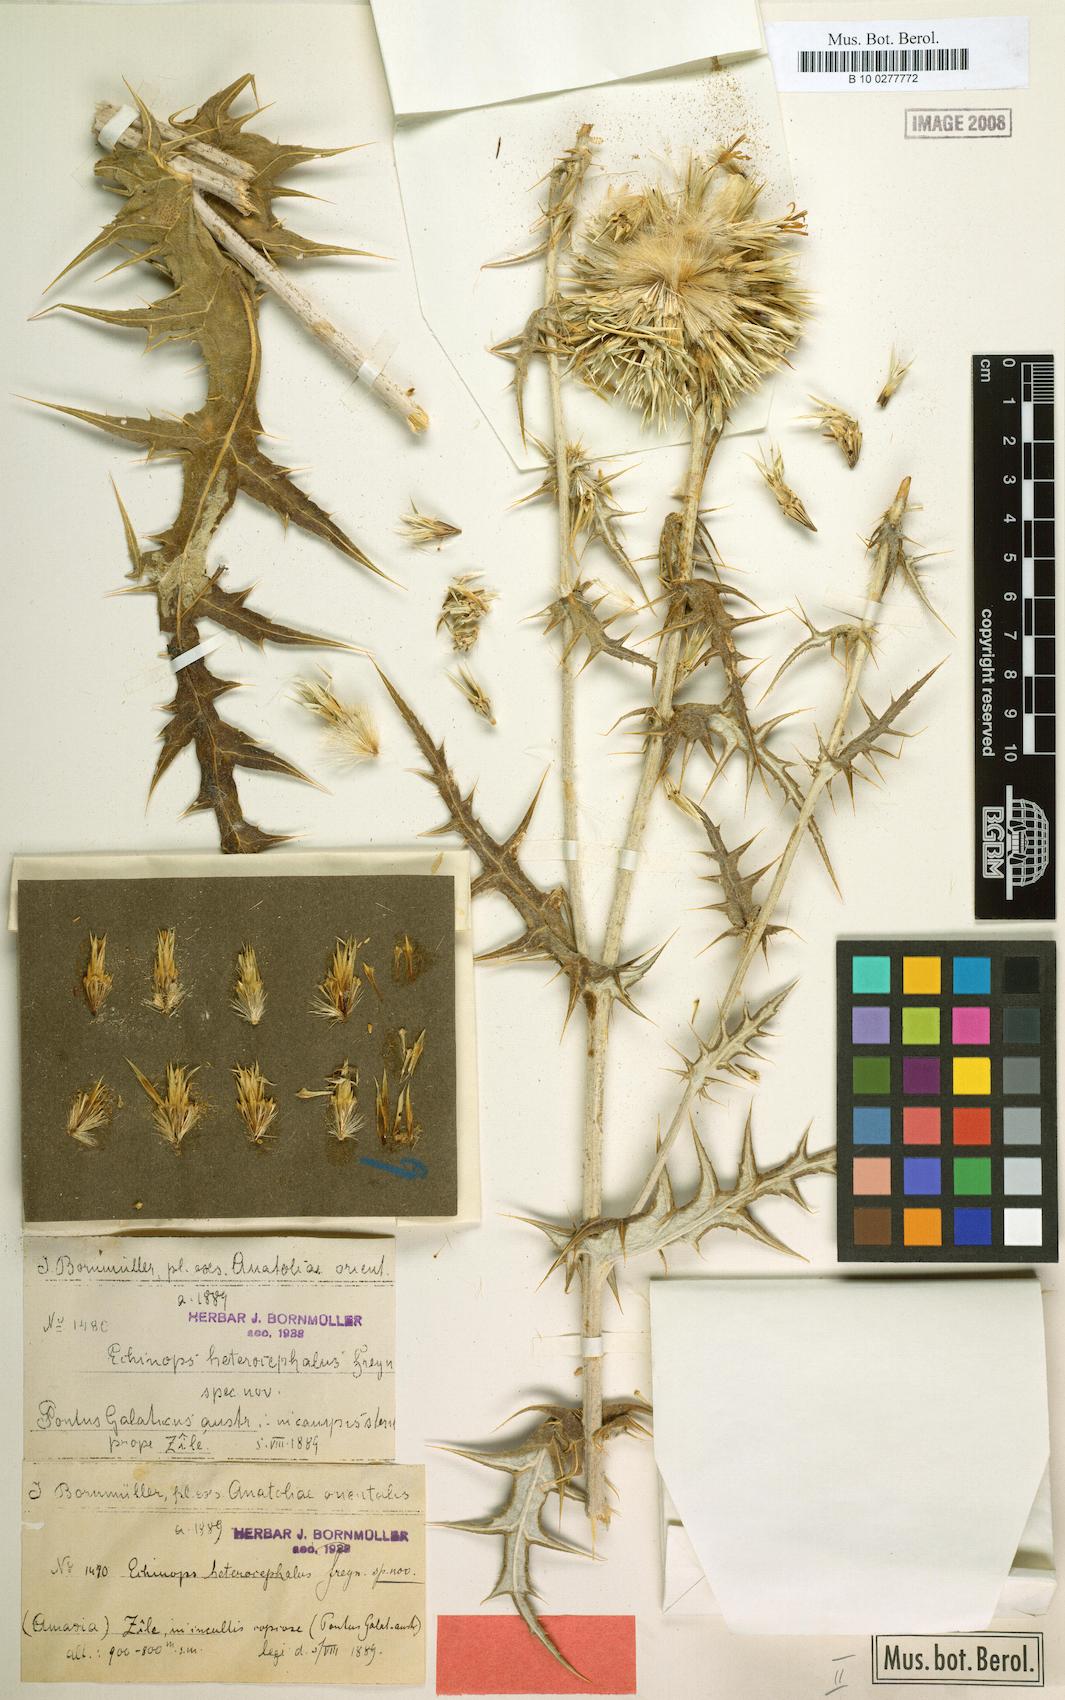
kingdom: Plantae
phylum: Tracheophyta
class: Magnoliopsida
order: Asterales
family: Asteraceae
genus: Echinops
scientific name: Echinops spinosissimus
